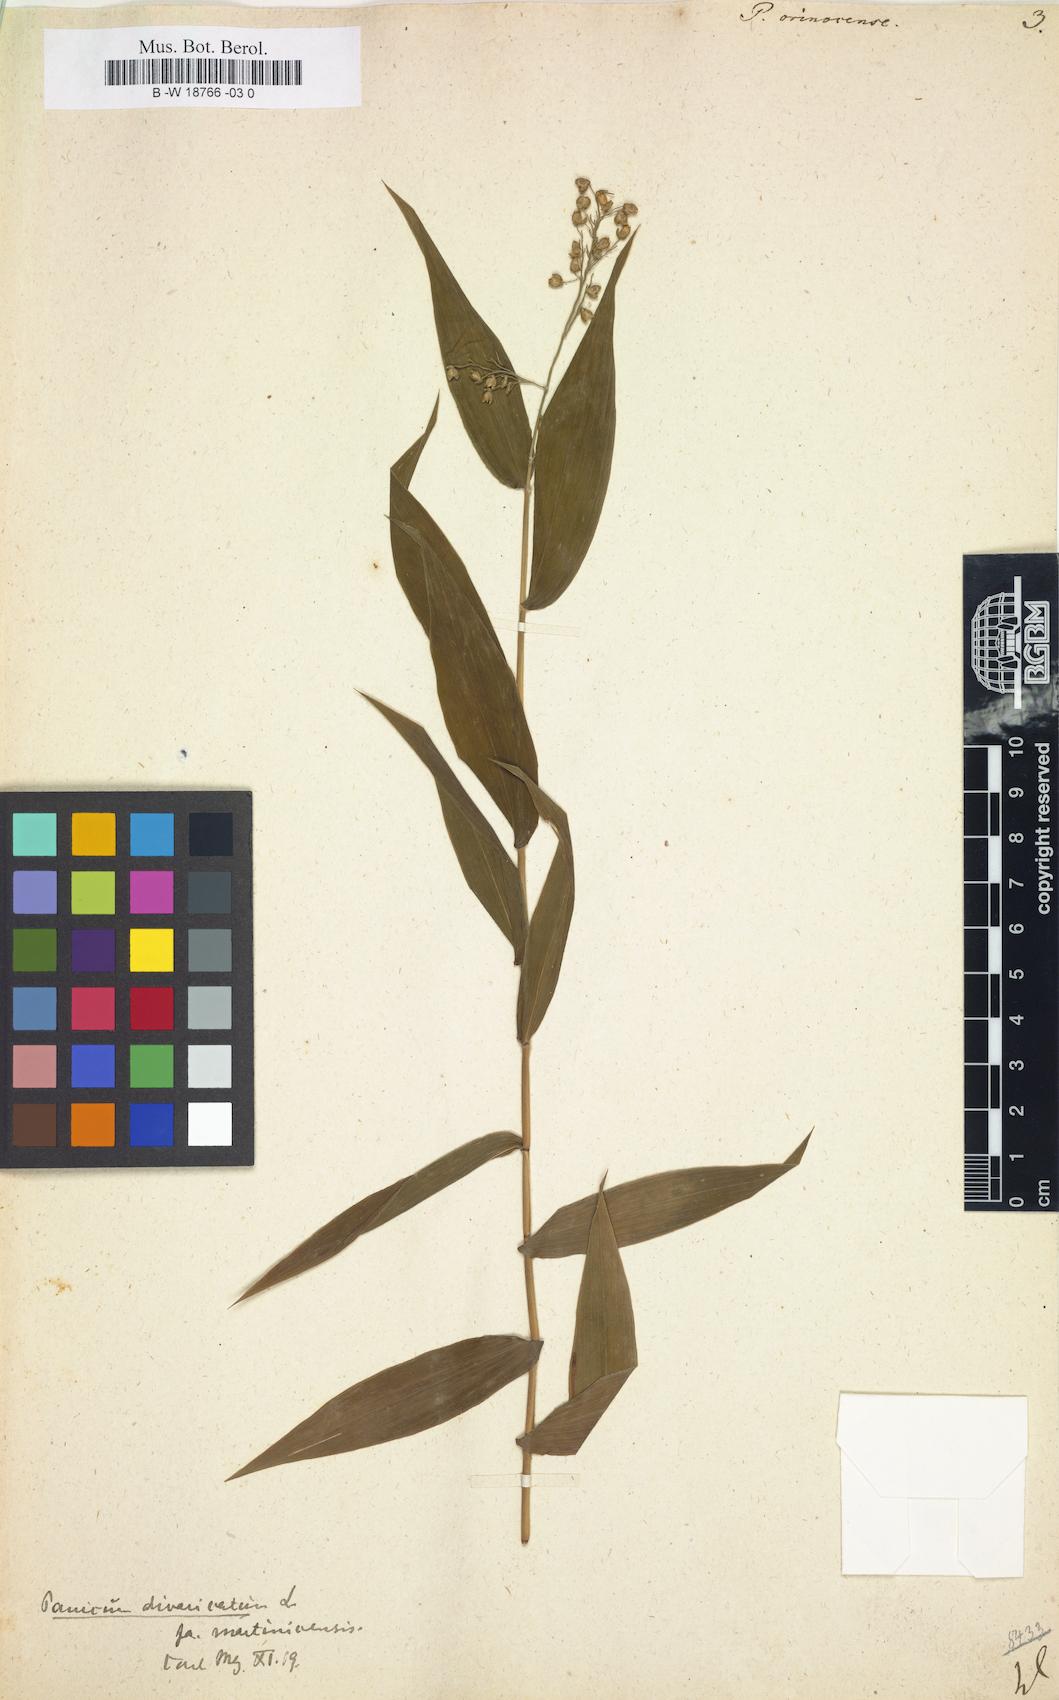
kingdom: Plantae
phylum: Tracheophyta
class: Liliopsida
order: Poales
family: Poaceae
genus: Lasiacis
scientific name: Lasiacis maculata
